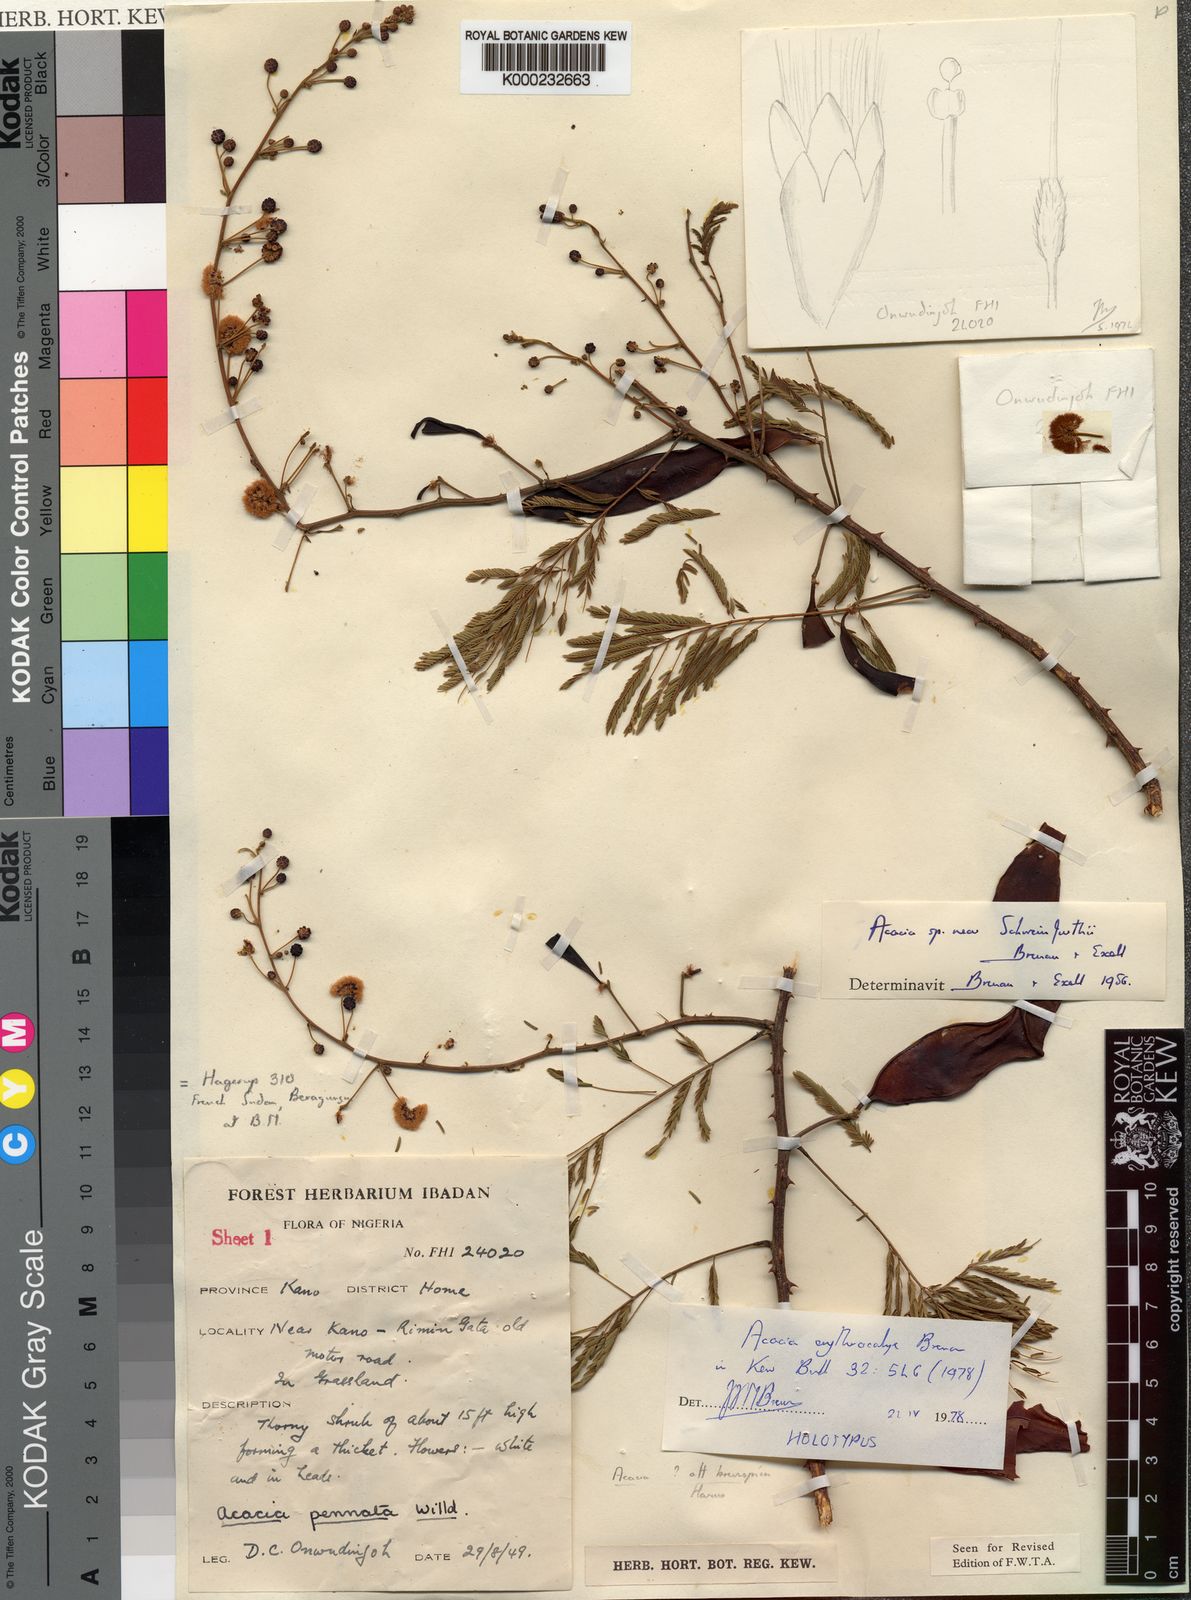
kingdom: Plantae
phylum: Tracheophyta
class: Magnoliopsida
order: Fabales
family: Fabaceae
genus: Acacia
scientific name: Acacia
